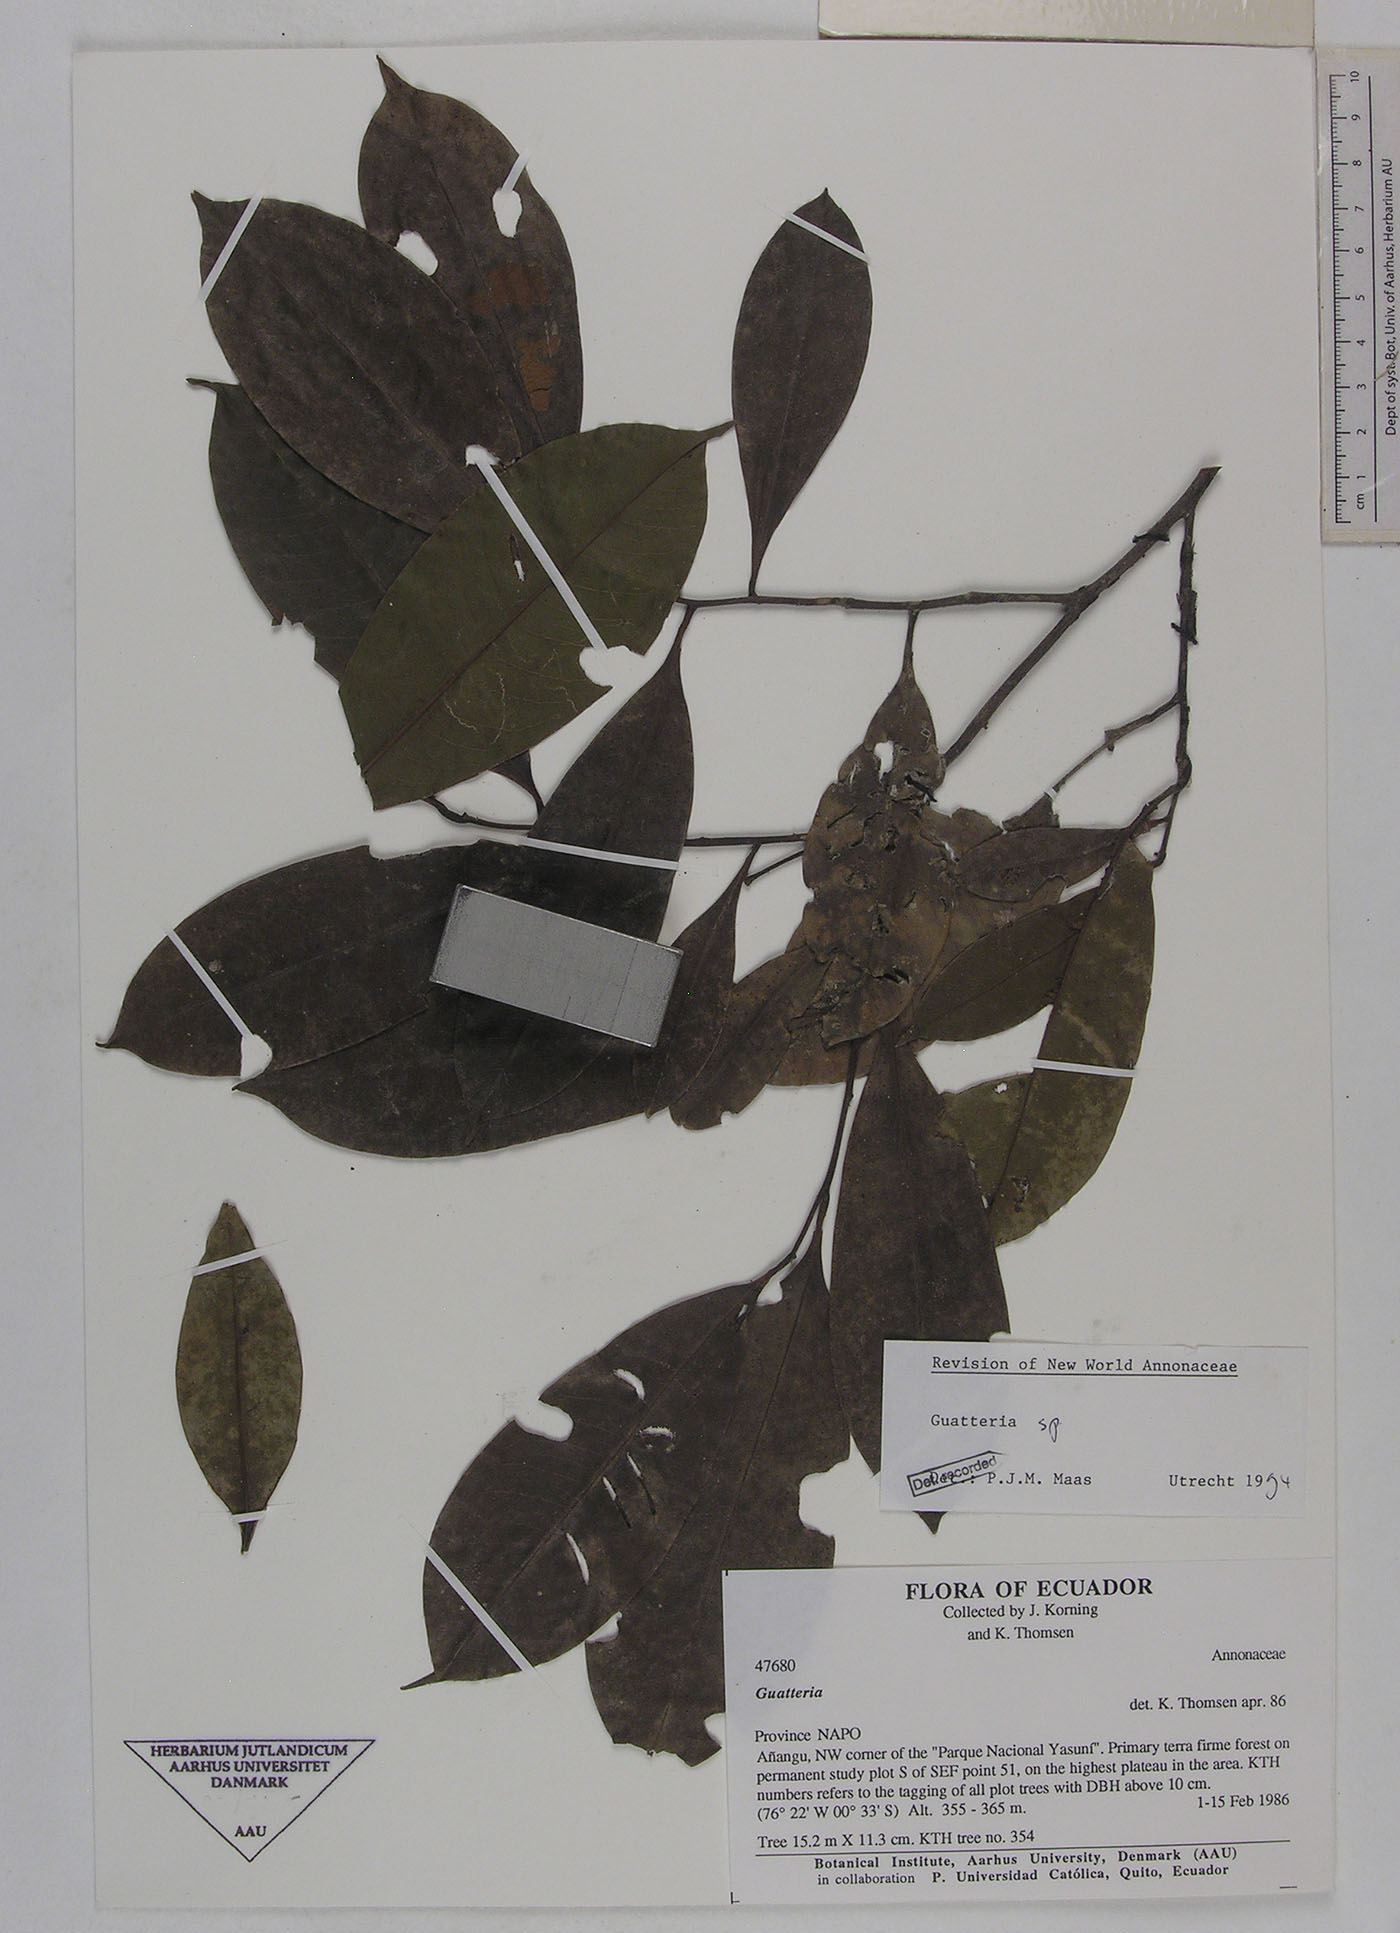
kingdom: Plantae
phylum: Tracheophyta
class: Magnoliopsida
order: Magnoliales
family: Annonaceae
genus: Guatteria
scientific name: Guatteria modesta
